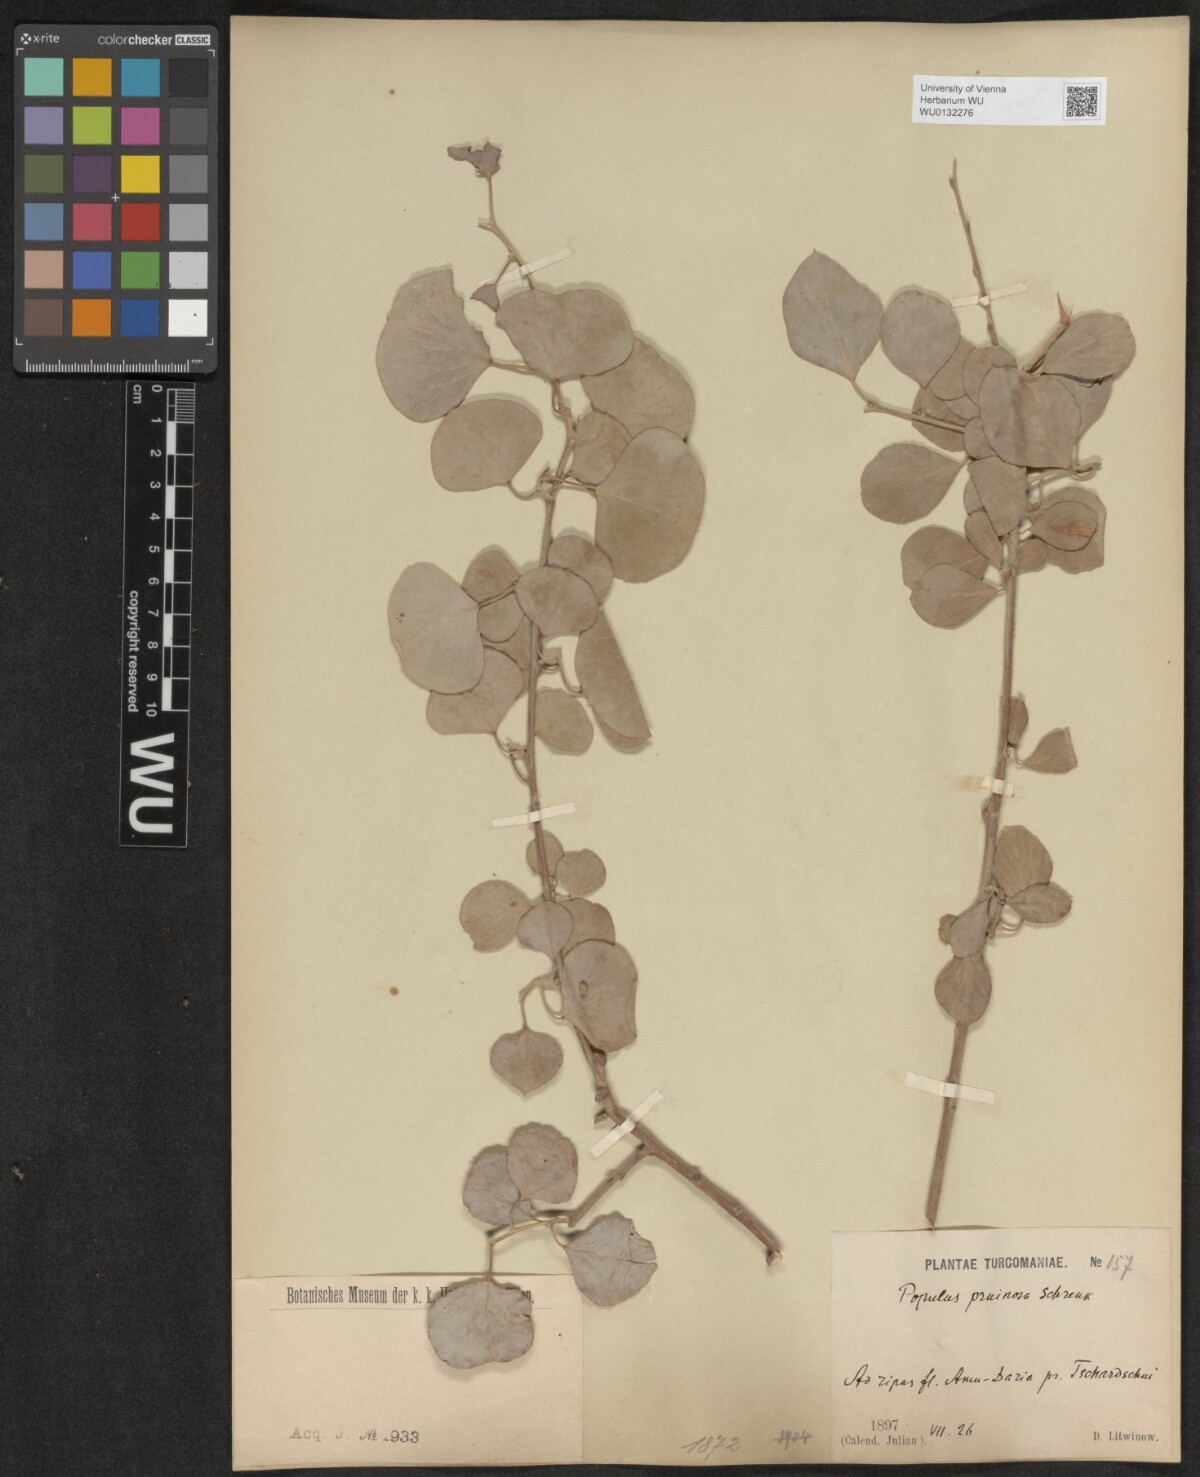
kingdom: Plantae
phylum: Tracheophyta
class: Magnoliopsida
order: Malpighiales
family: Salicaceae
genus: Populus
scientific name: Populus pruinosa
